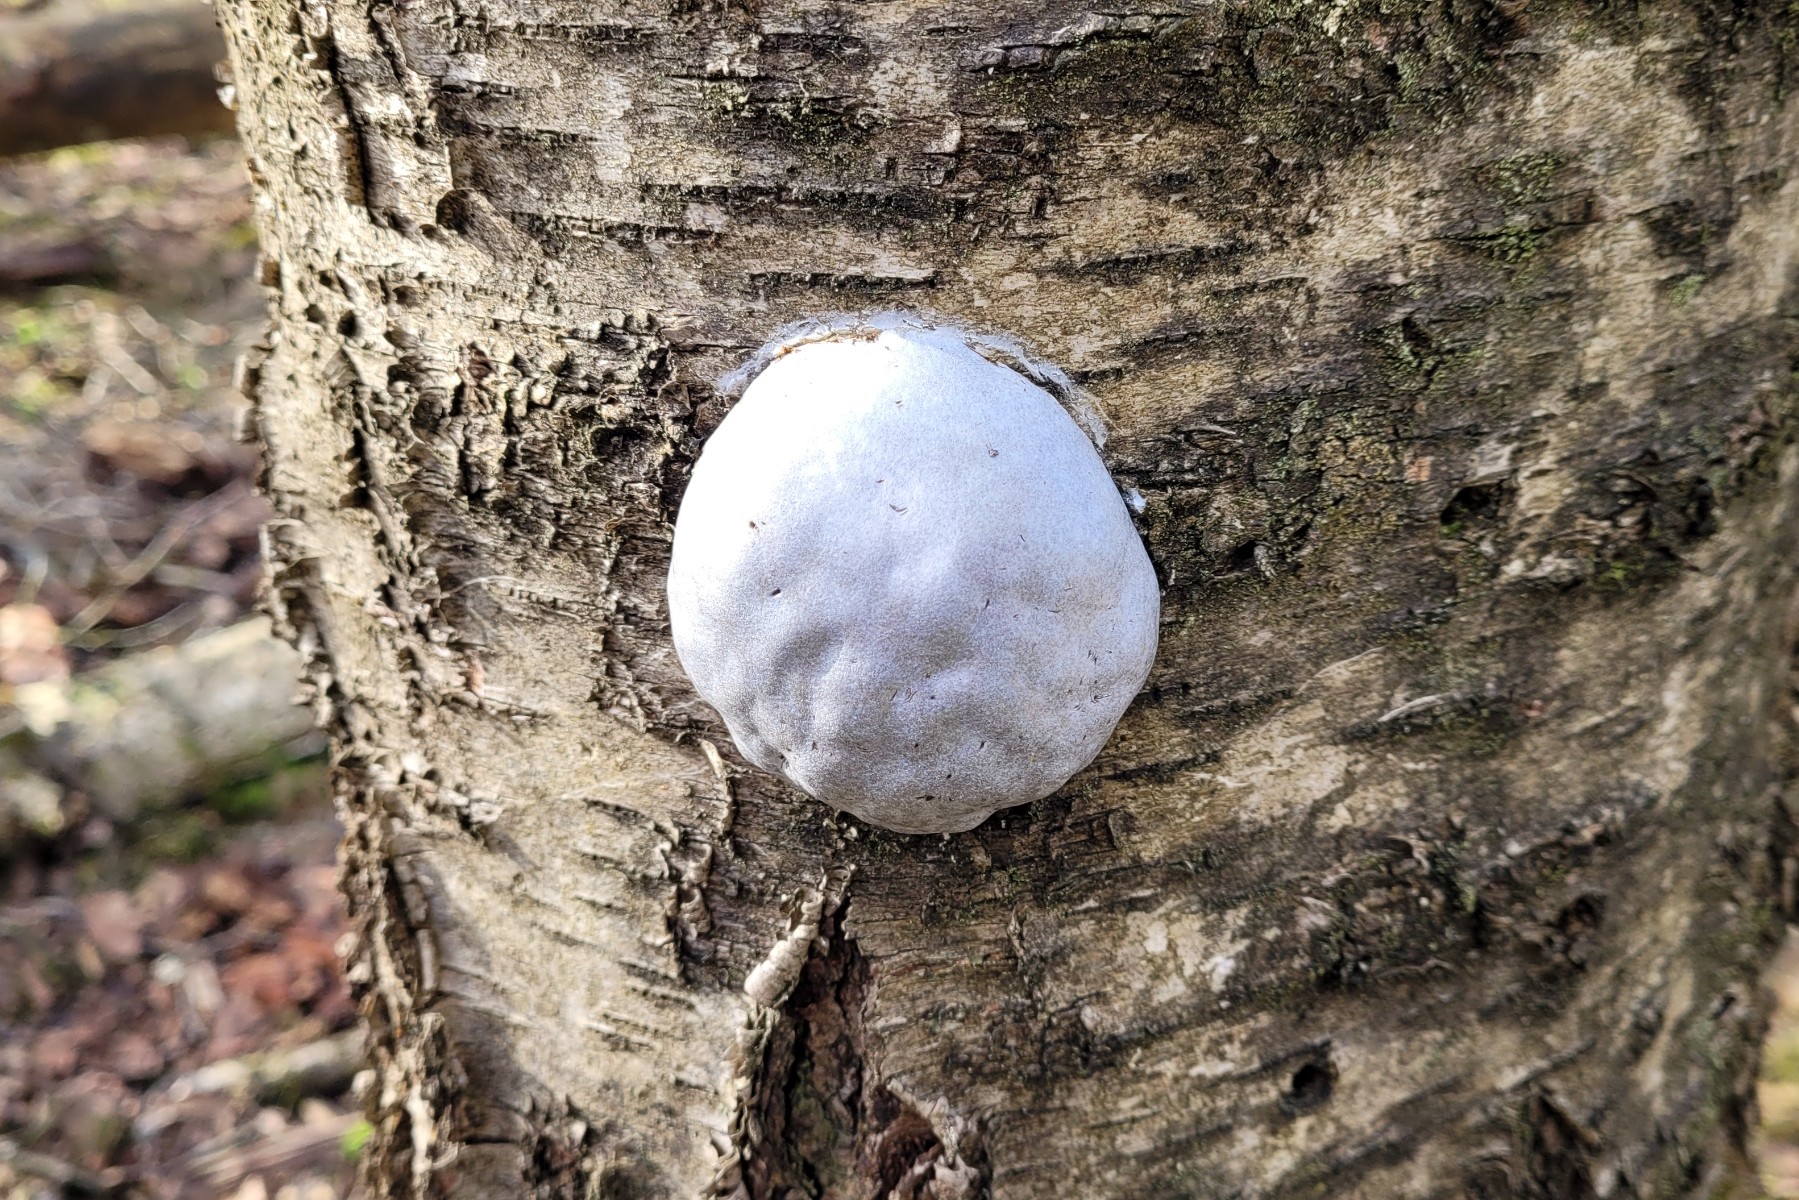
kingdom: Protozoa
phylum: Mycetozoa
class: Myxomycetes
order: Cribrariales
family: Tubiferaceae
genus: Reticularia
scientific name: Reticularia lycoperdon
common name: skinnende støvpude
